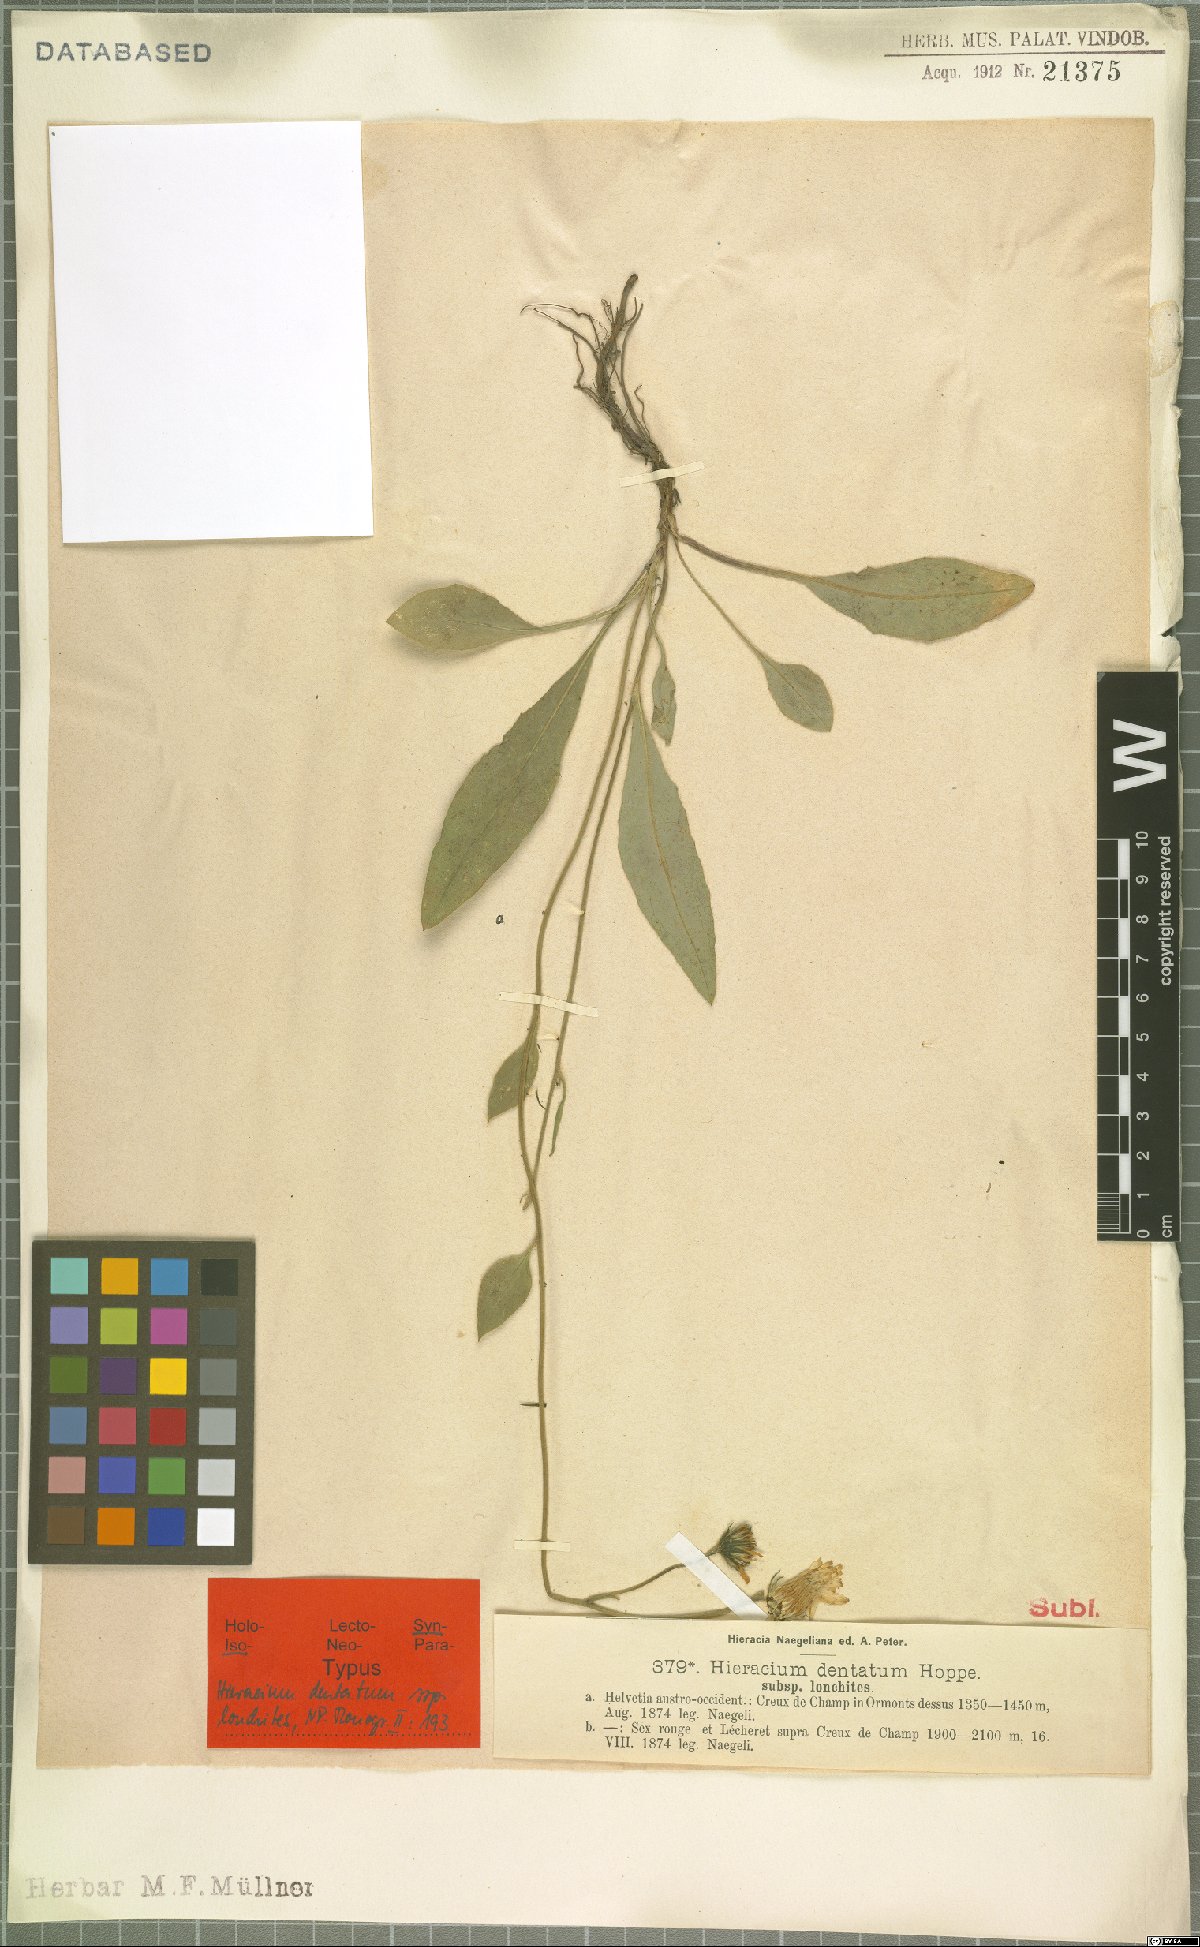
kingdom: Plantae
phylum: Tracheophyta
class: Magnoliopsida
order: Asterales
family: Asteraceae
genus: Hieracium
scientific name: Hieracium dentatum
